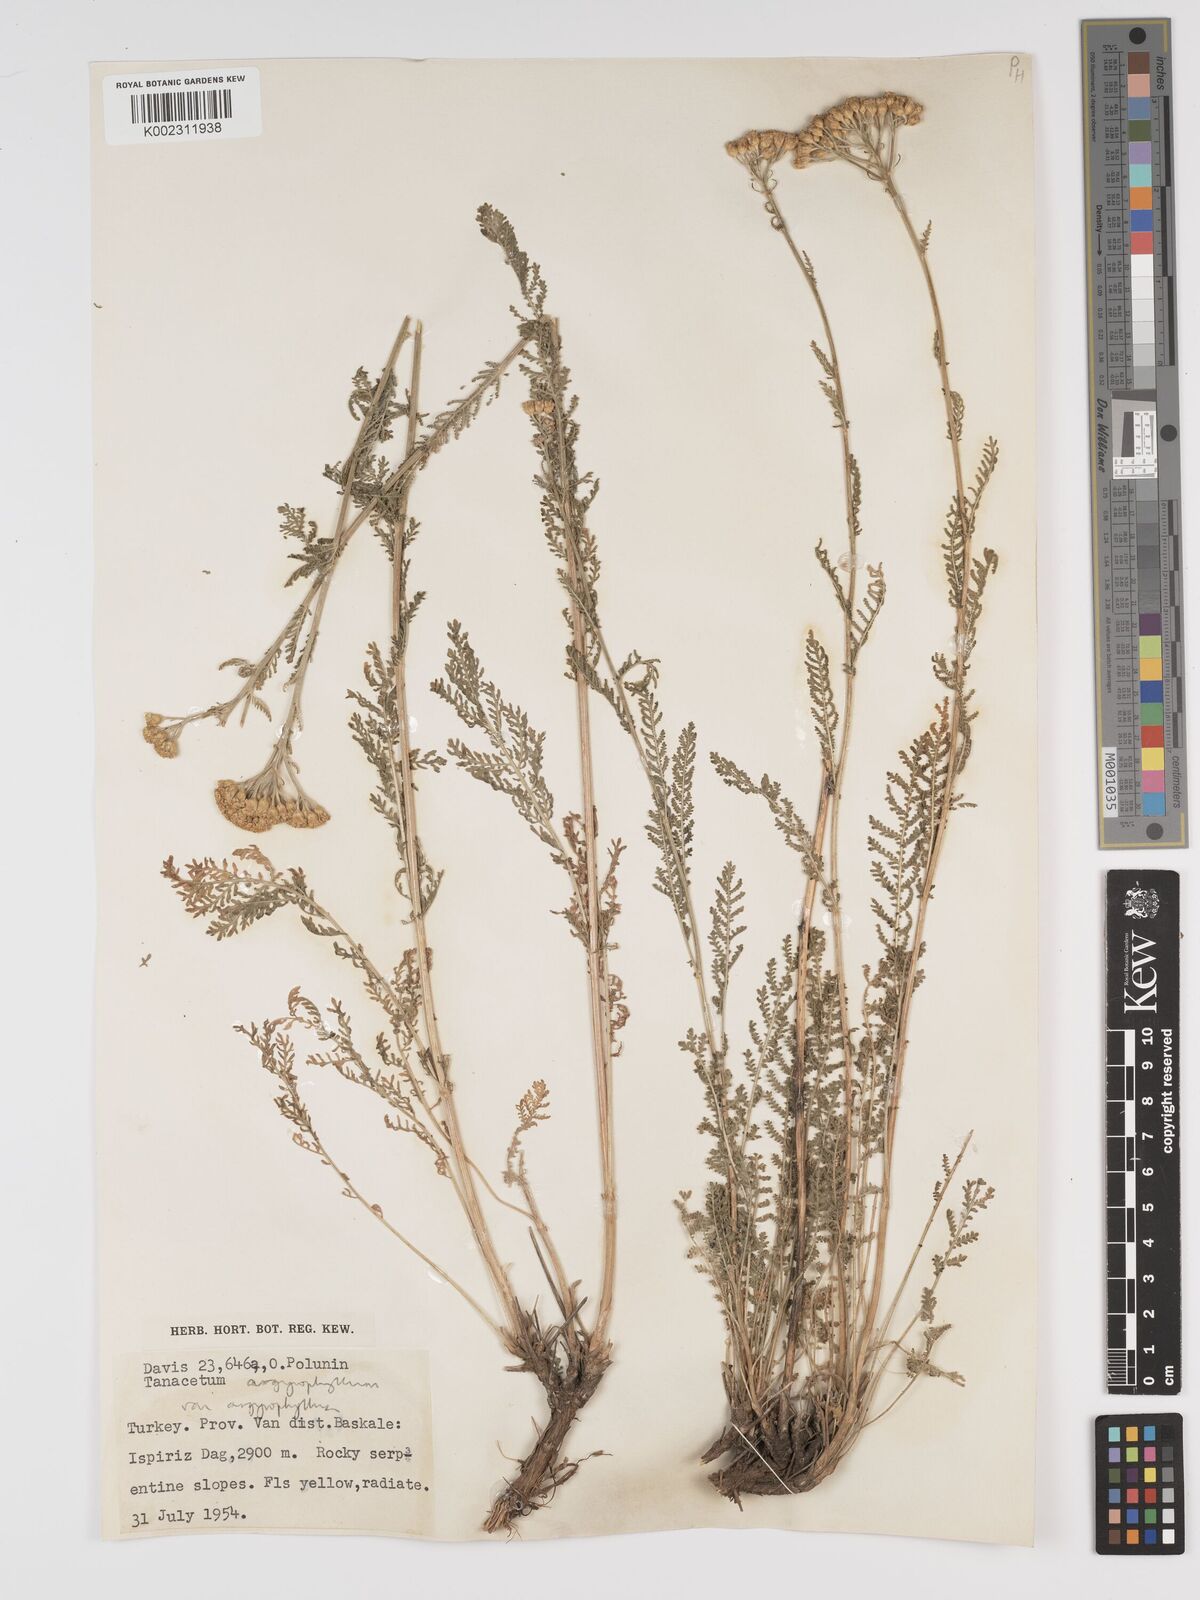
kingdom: Plantae
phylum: Tracheophyta
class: Magnoliopsida
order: Asterales
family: Asteraceae
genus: Tanacetum
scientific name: Tanacetum polycephalum
